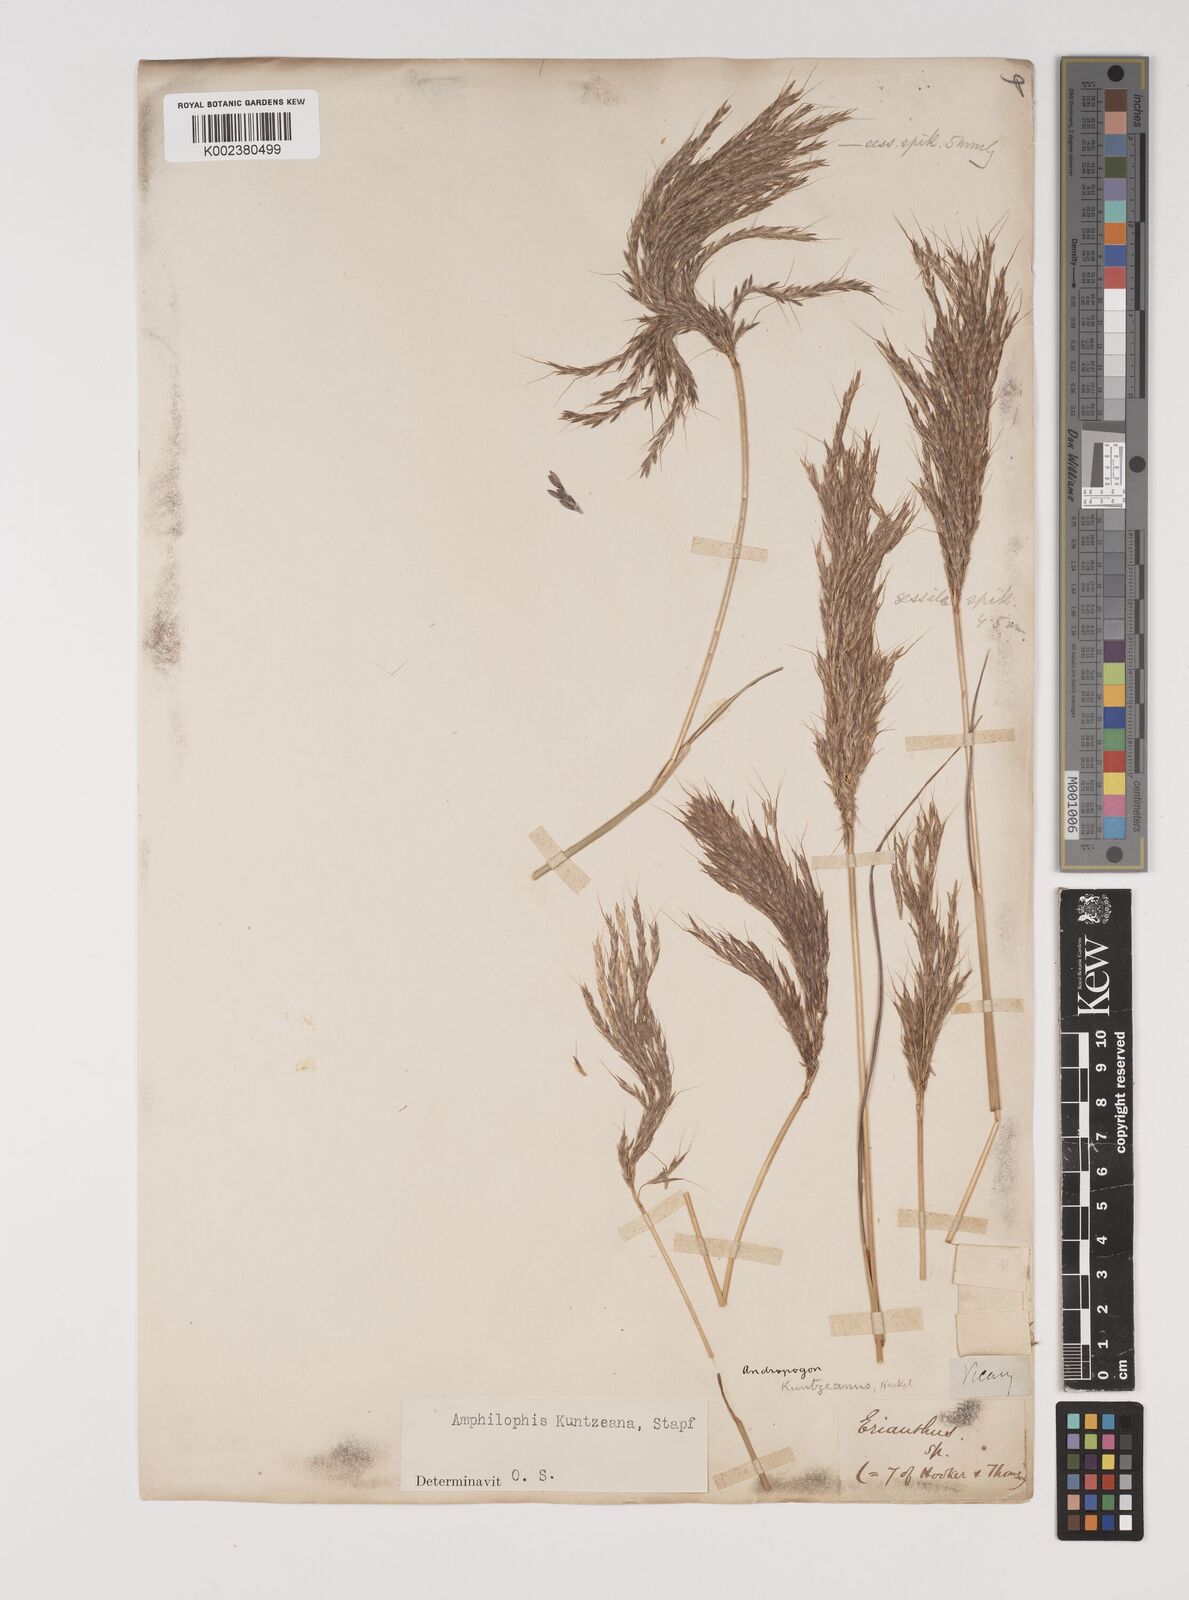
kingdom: Plantae
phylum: Tracheophyta
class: Liliopsida
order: Poales
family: Poaceae
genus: Bothriochloa
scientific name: Bothriochloa kuntzeana
